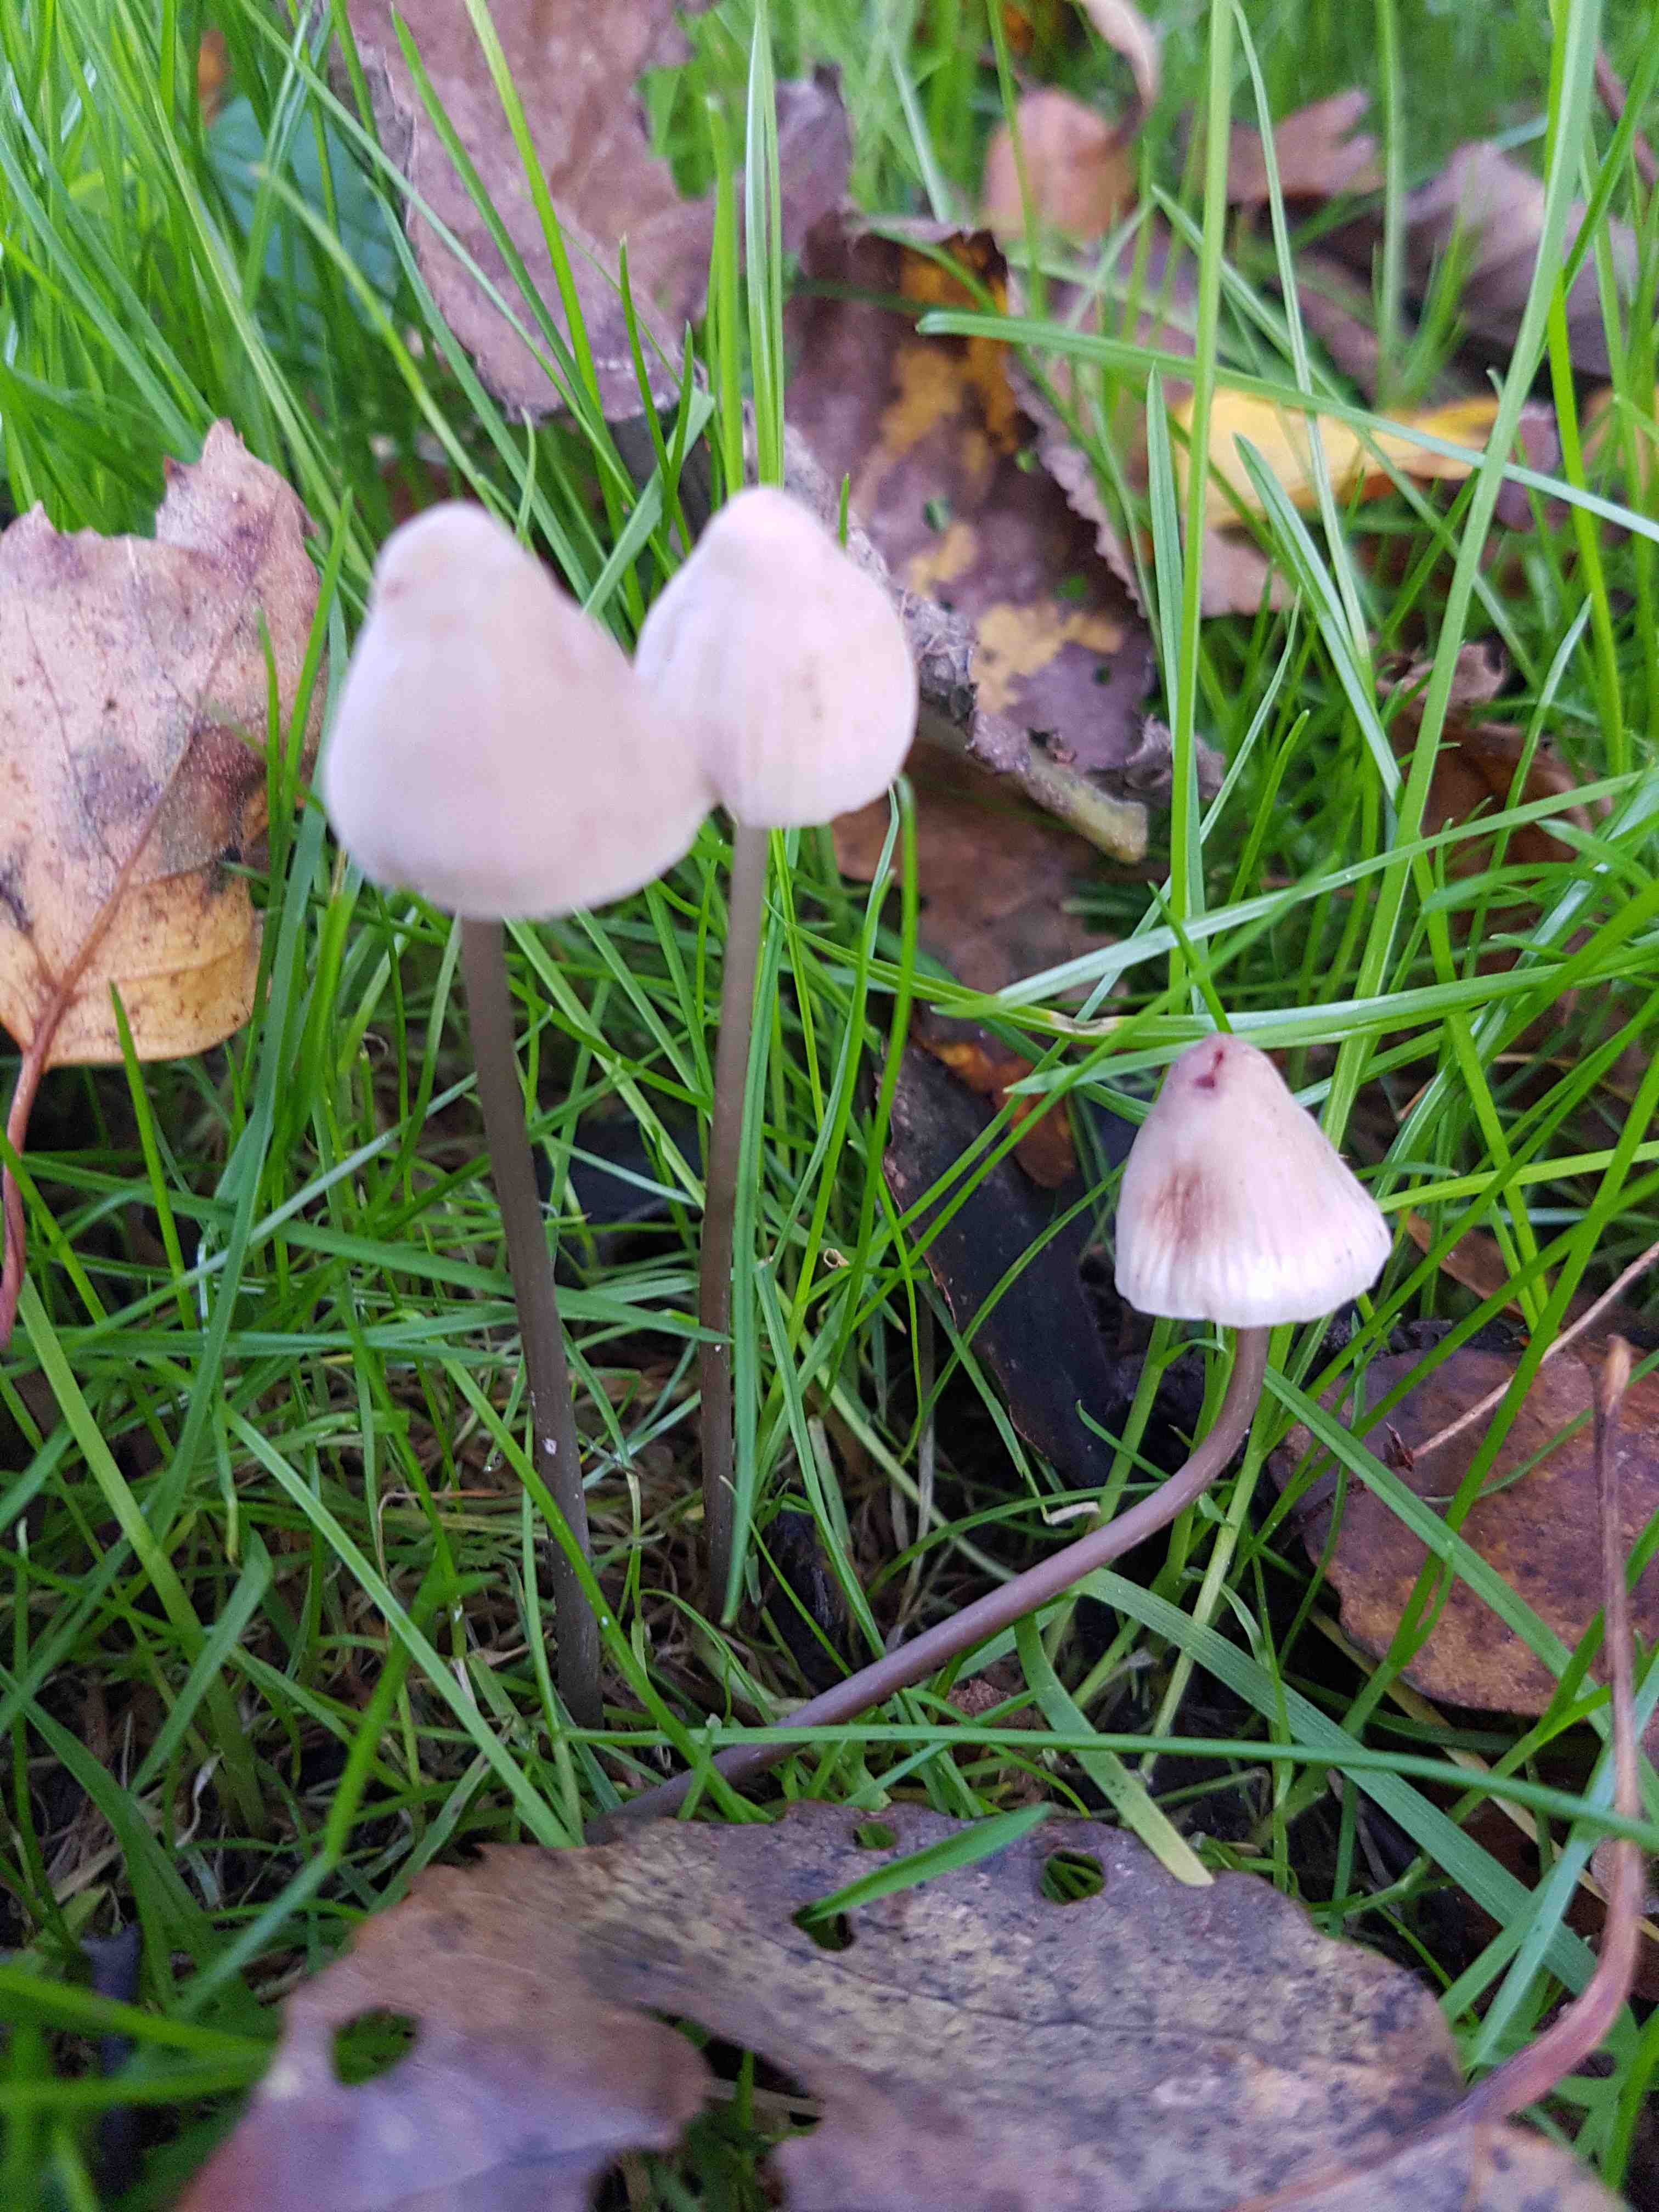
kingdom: Fungi
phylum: Basidiomycota
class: Agaricomycetes
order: Agaricales
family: Mycenaceae
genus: Mycena
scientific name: Mycena filopes
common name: jod-huesvamp
